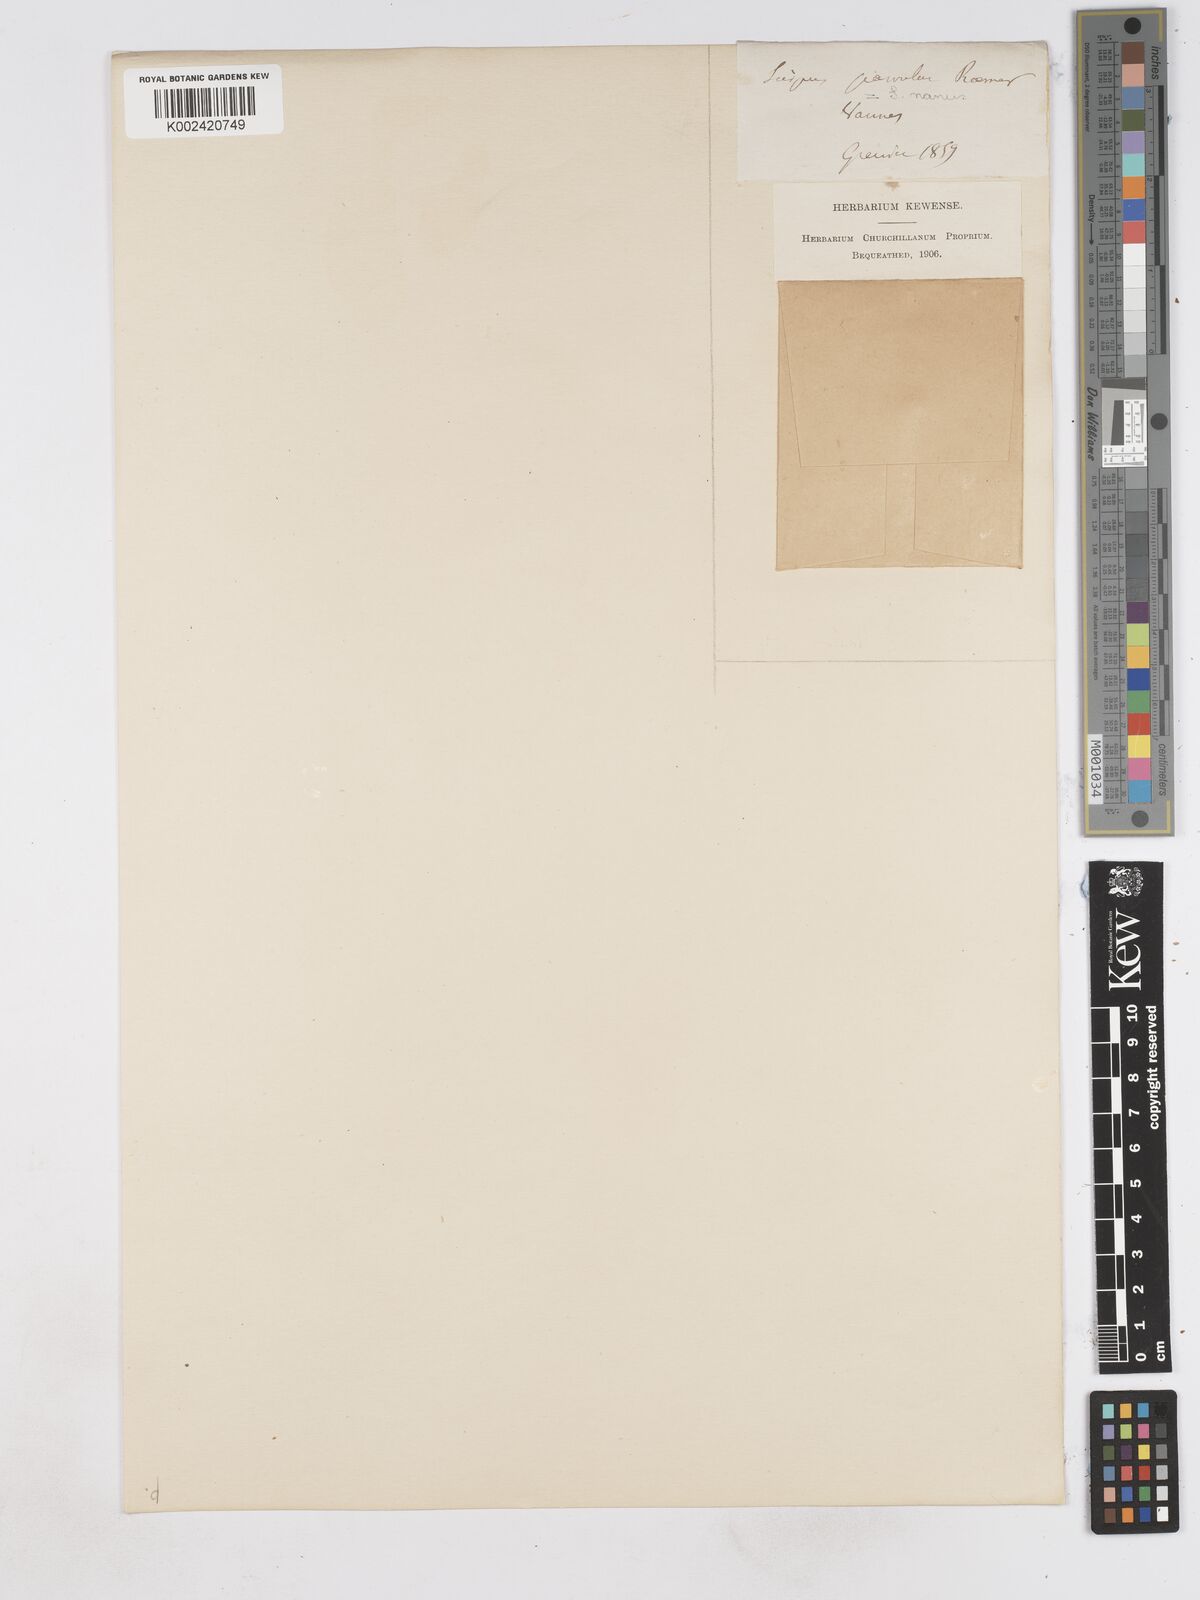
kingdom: Plantae
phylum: Tracheophyta
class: Liliopsida
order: Poales
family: Cyperaceae
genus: Eleocharis
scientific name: Eleocharis parvula
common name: Dwarf spike-rush
